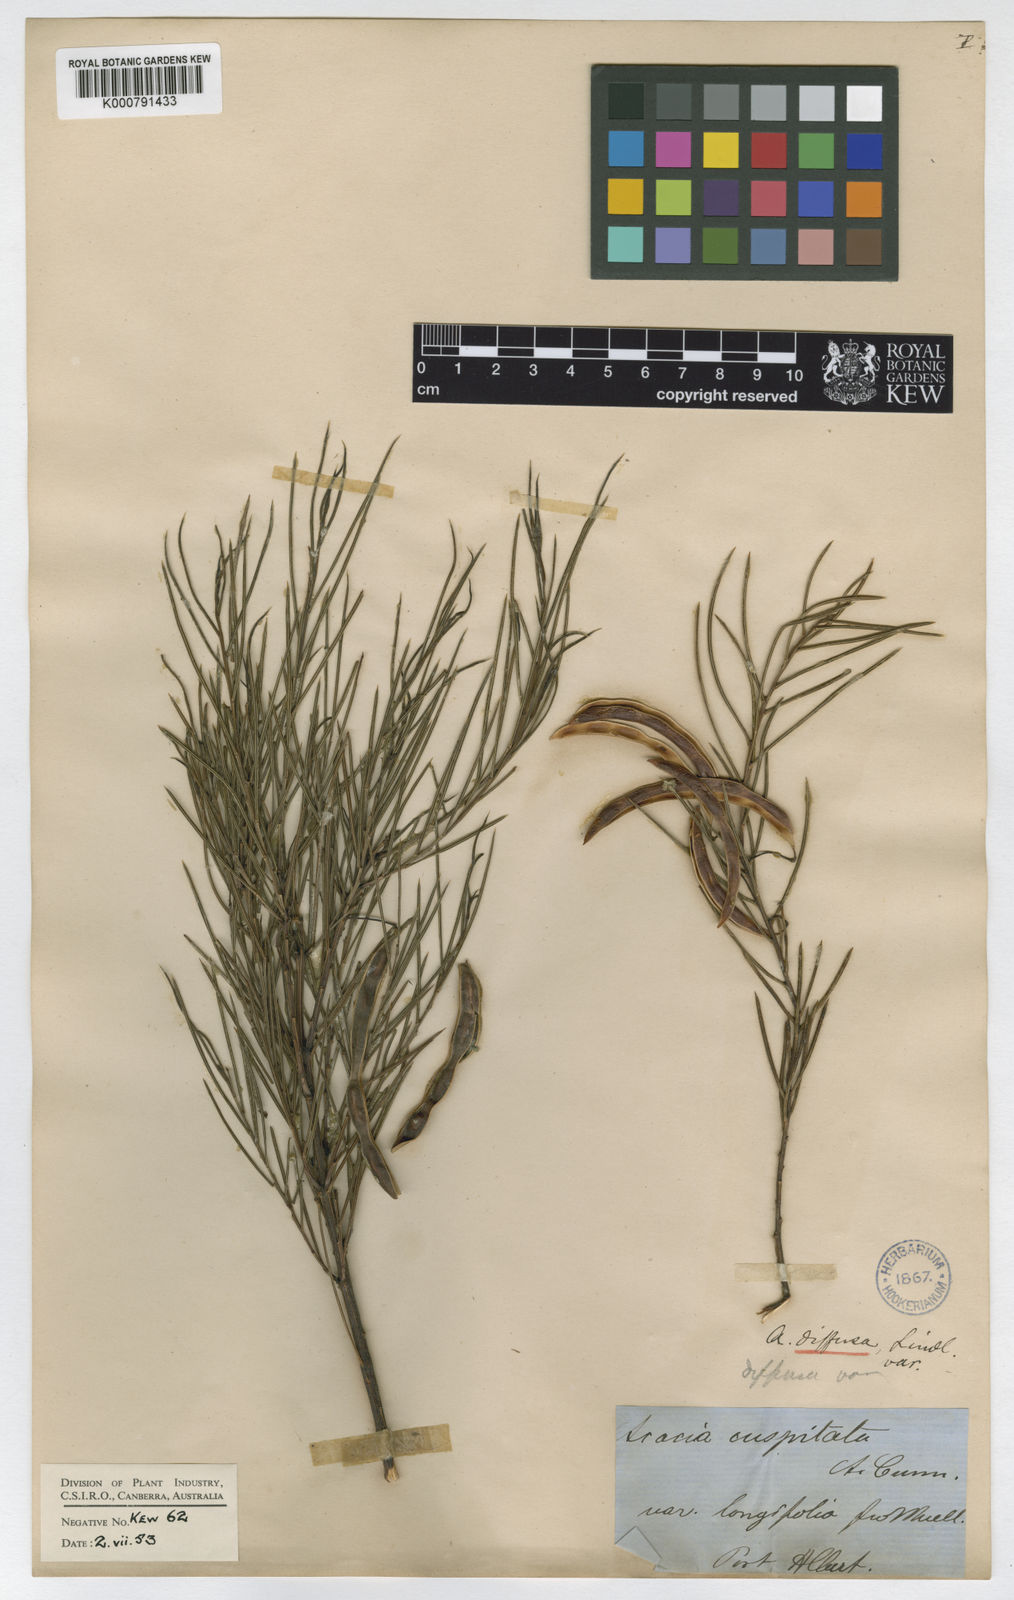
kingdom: Plantae
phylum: Tracheophyta
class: Magnoliopsida
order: Fabales
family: Fabaceae
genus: Acacia
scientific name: Acacia
